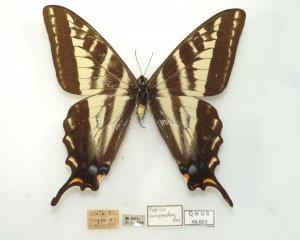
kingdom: Animalia
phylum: Arthropoda
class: Insecta
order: Lepidoptera
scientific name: Lepidoptera
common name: Butterflies
